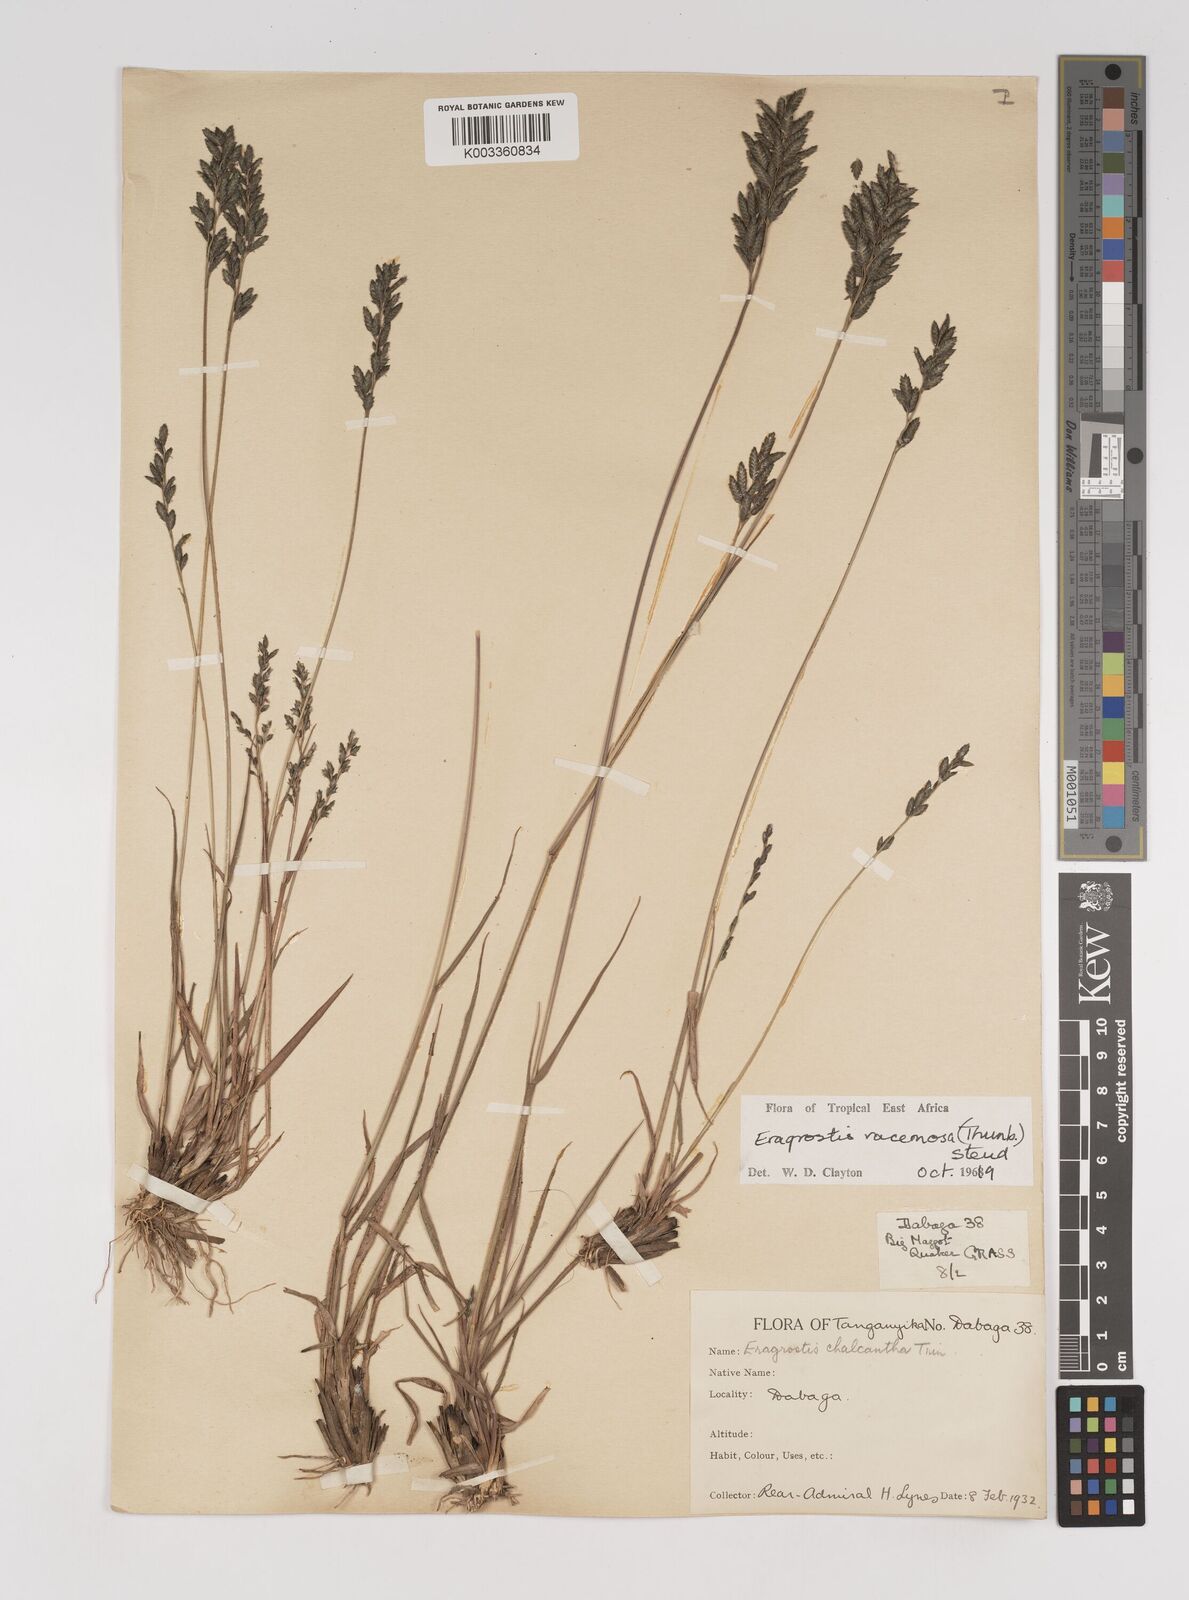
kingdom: Plantae
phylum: Tracheophyta
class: Liliopsida
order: Poales
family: Poaceae
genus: Eragrostis
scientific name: Eragrostis racemosa
